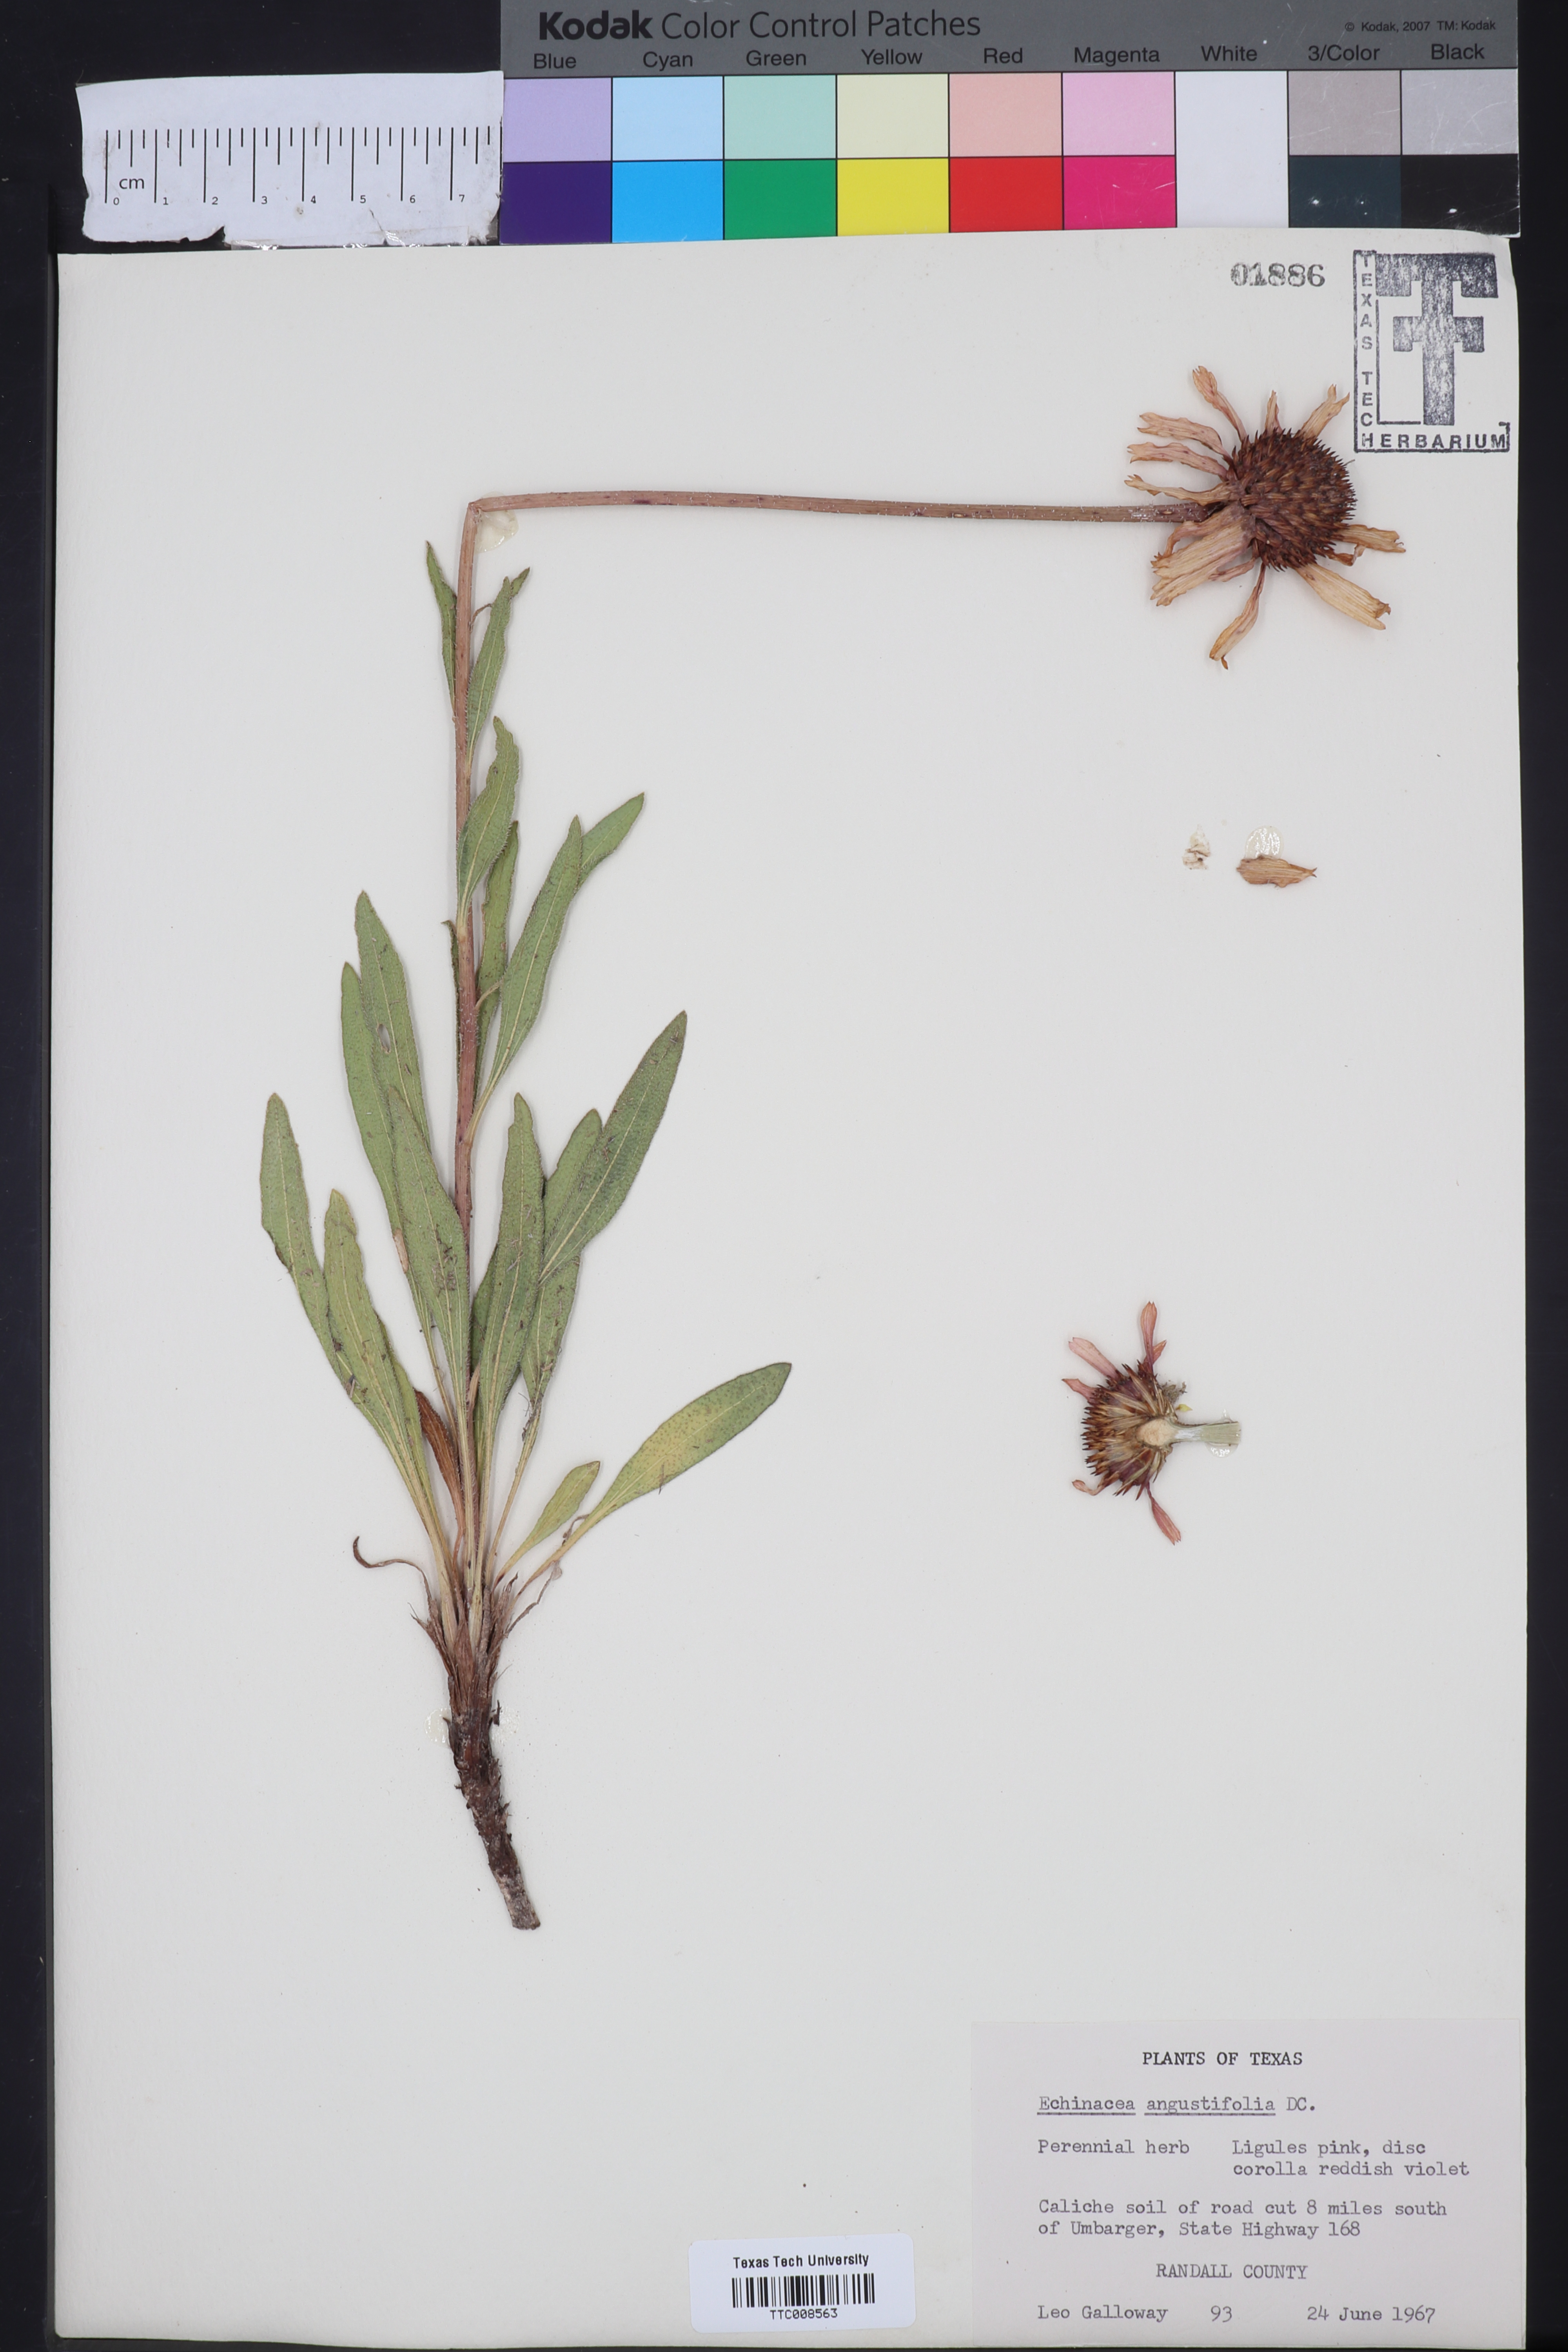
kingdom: Plantae
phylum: Tracheophyta
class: Magnoliopsida
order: Asterales
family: Asteraceae
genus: Echinacea
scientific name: Echinacea angustifolia
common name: Black-sampson echinacea
